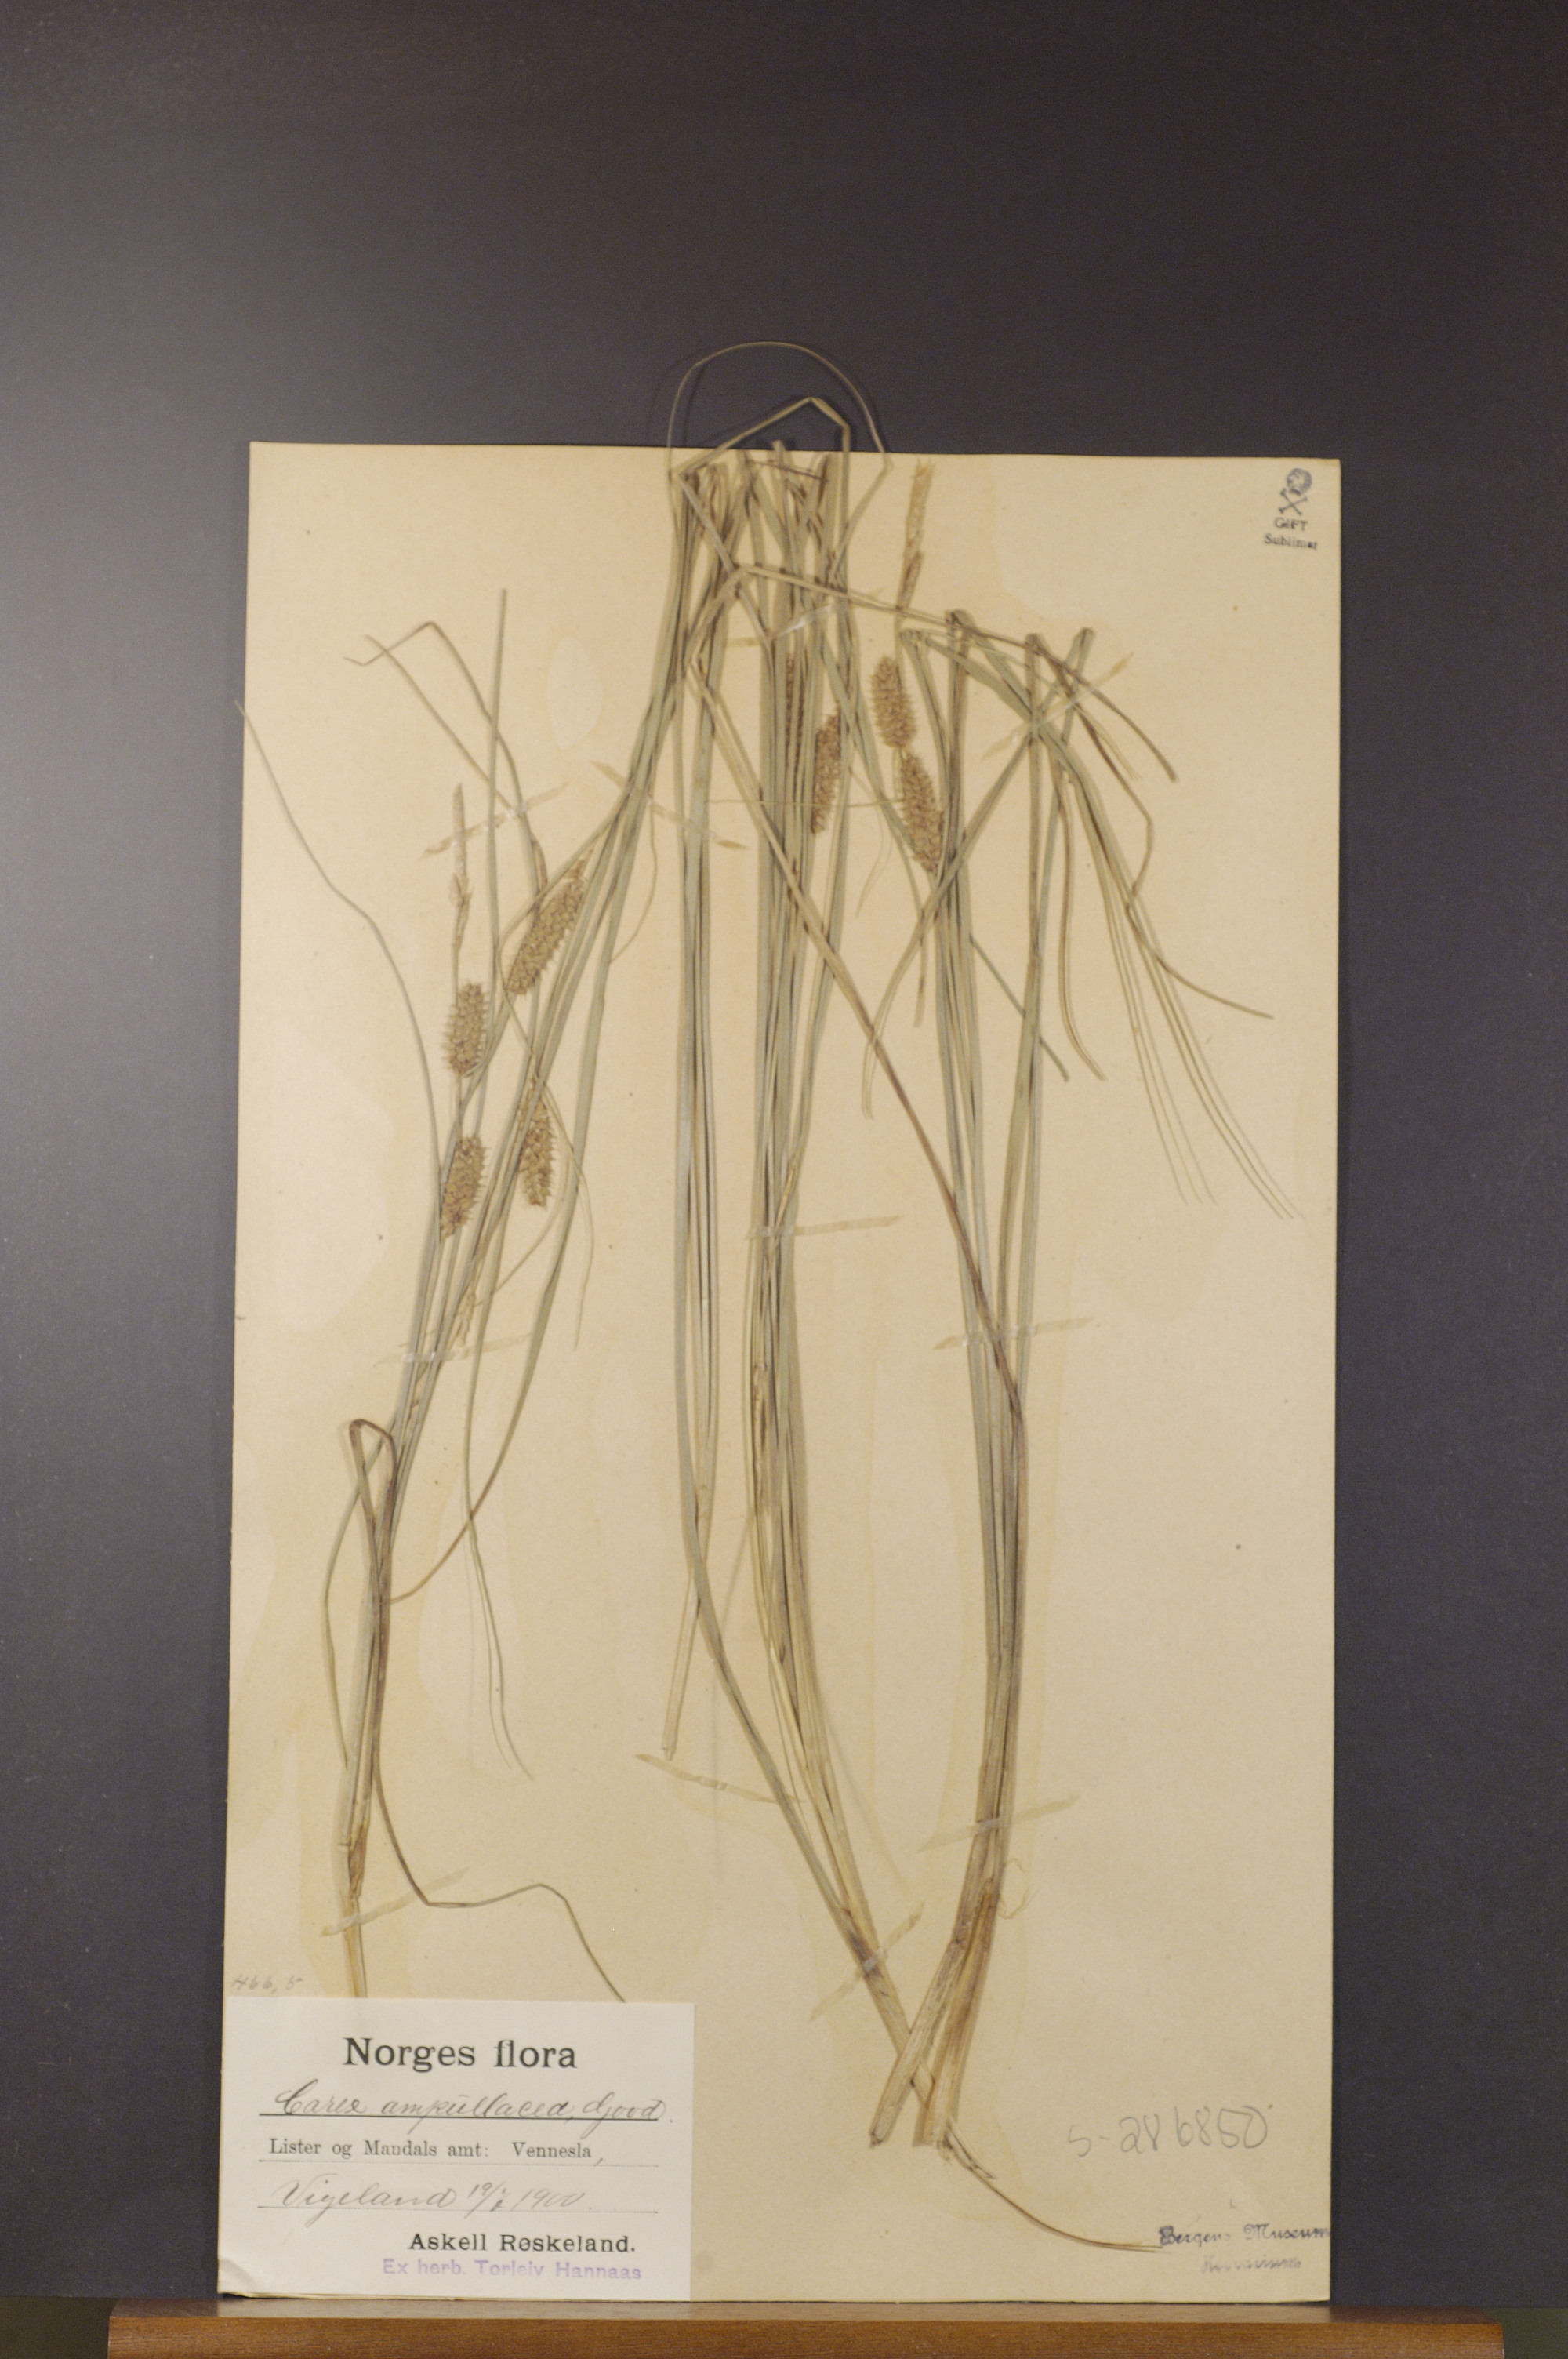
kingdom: Plantae
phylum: Tracheophyta
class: Liliopsida
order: Poales
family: Cyperaceae
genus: Carex
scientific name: Carex rostrata
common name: Bottle sedge
